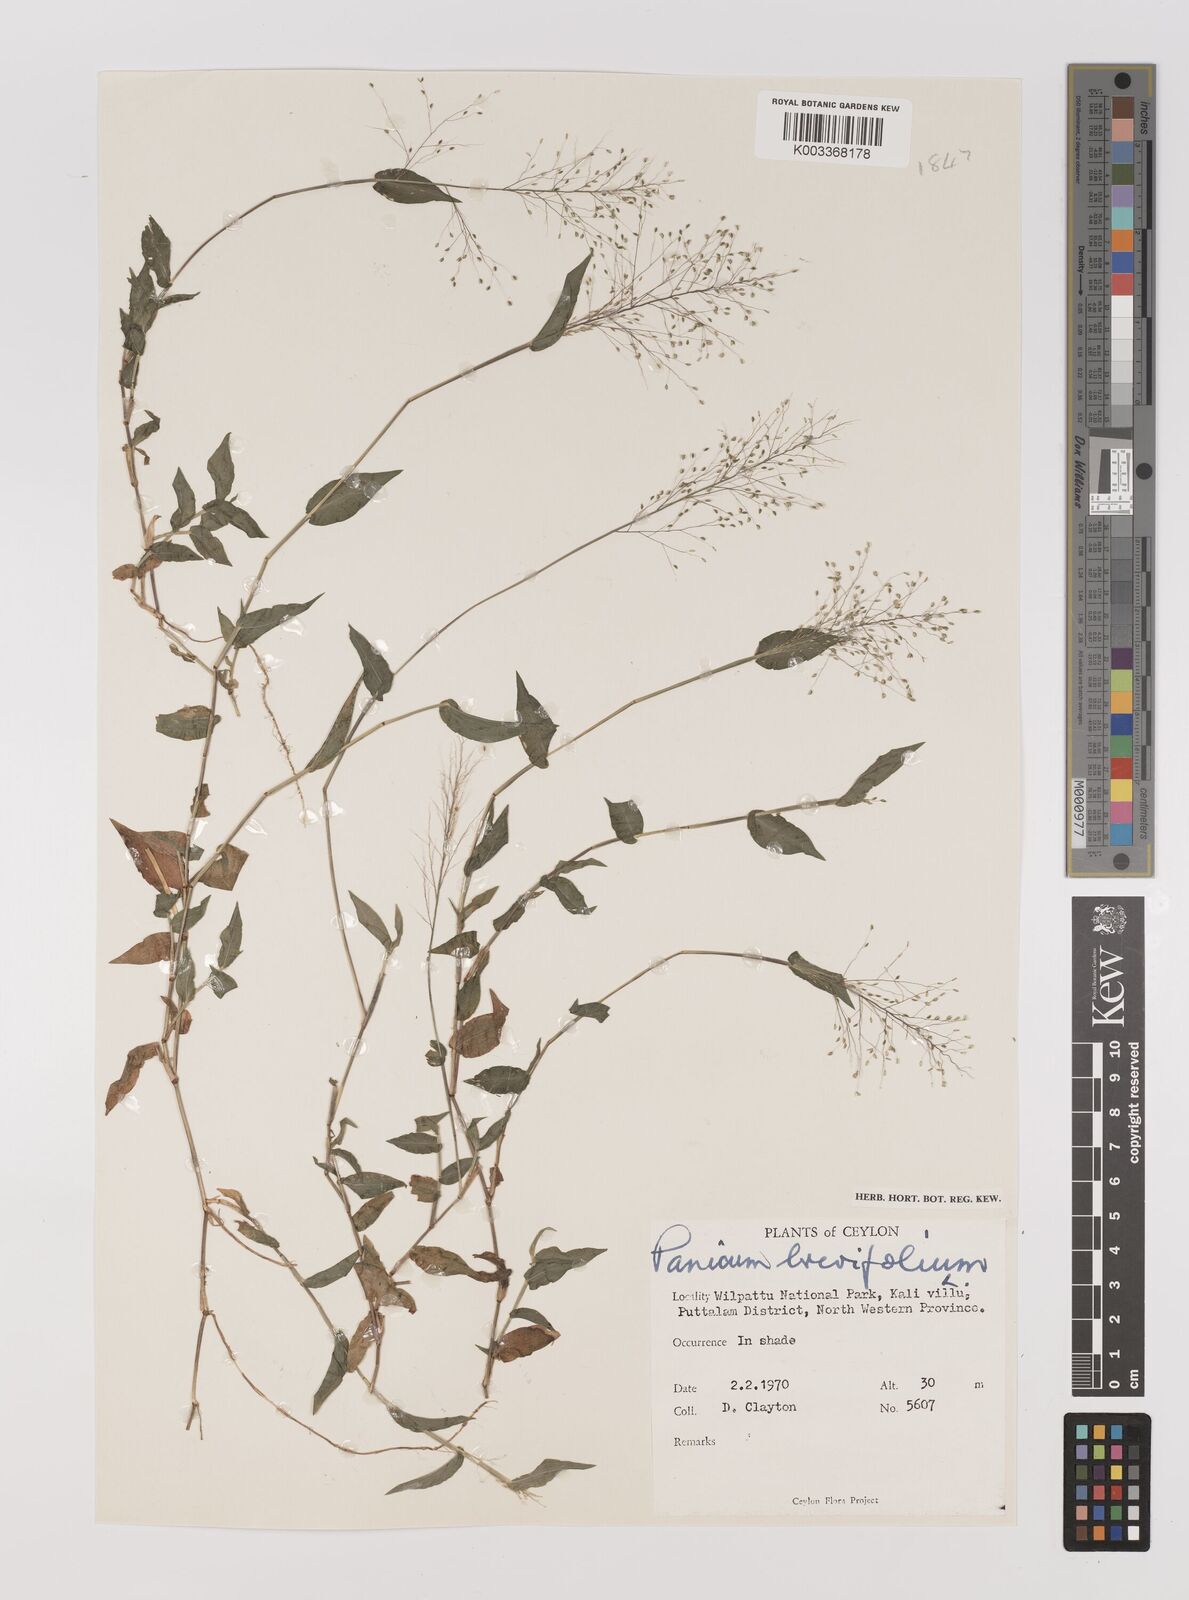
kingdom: Plantae
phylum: Tracheophyta
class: Liliopsida
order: Poales
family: Poaceae
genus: Panicum
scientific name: Panicum brevifolium
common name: Shortleaf panic grass
